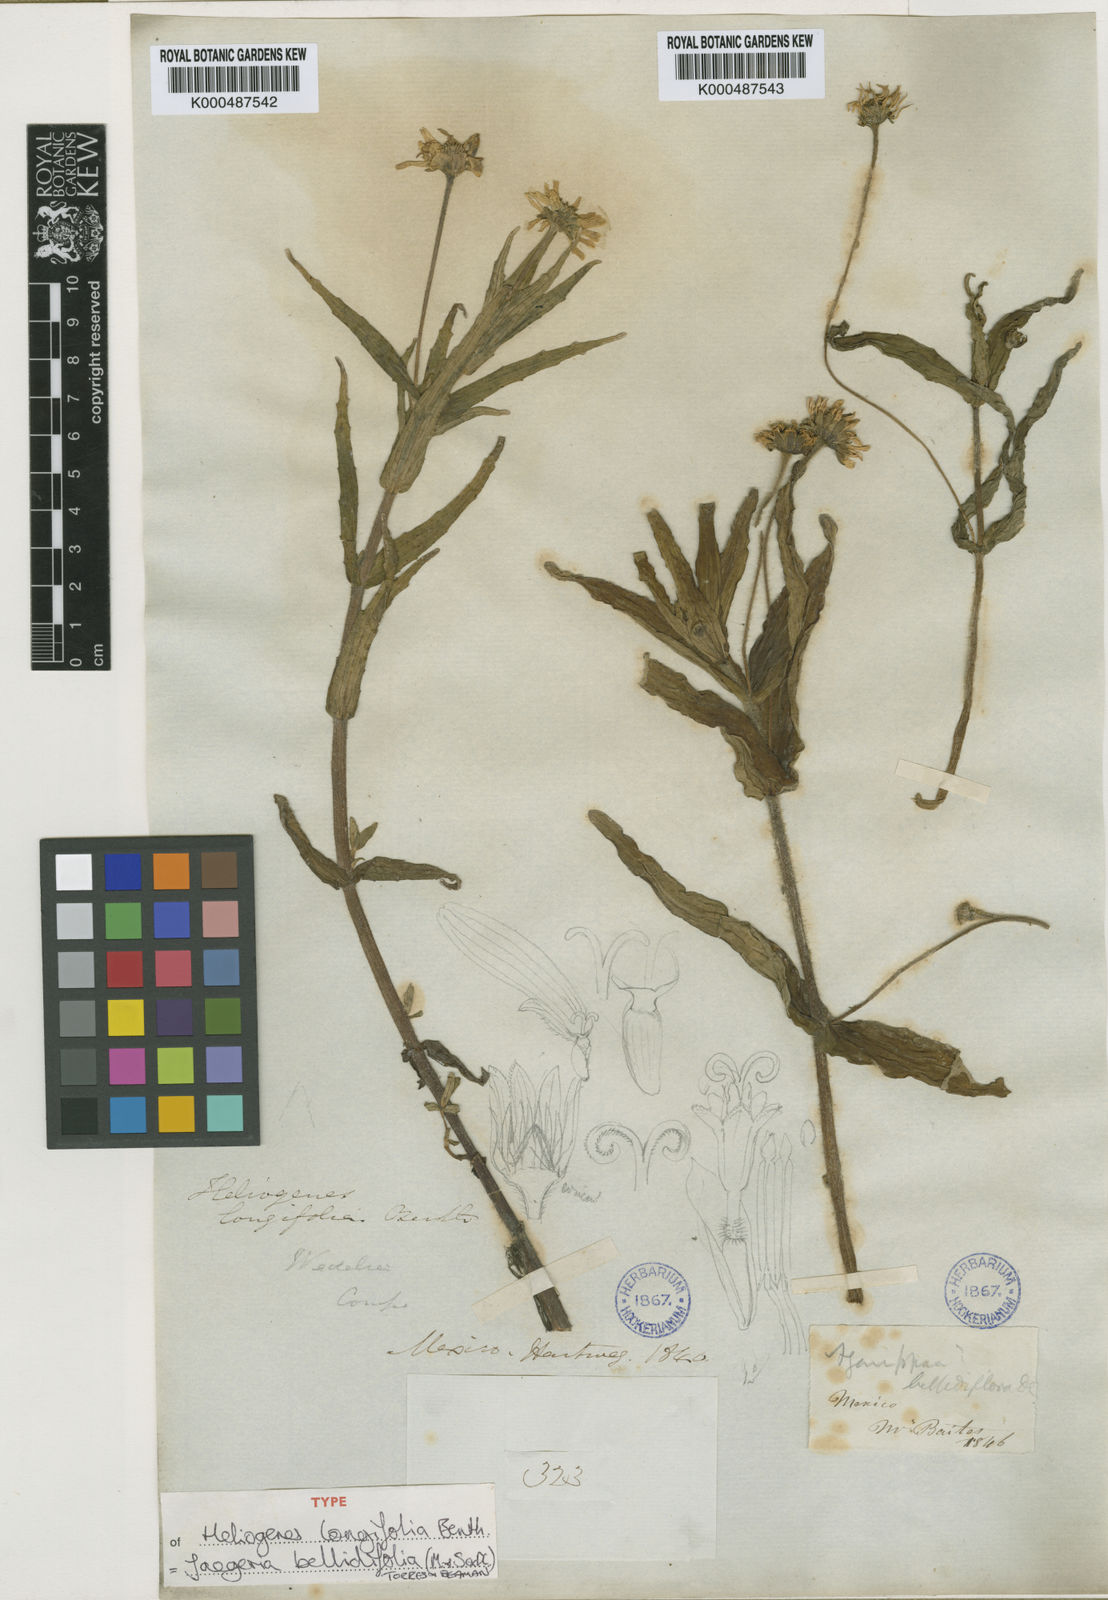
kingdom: Plantae
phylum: Tracheophyta
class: Magnoliopsida
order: Asterales
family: Asteraceae
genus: Jaegeria
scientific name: Jaegeria
